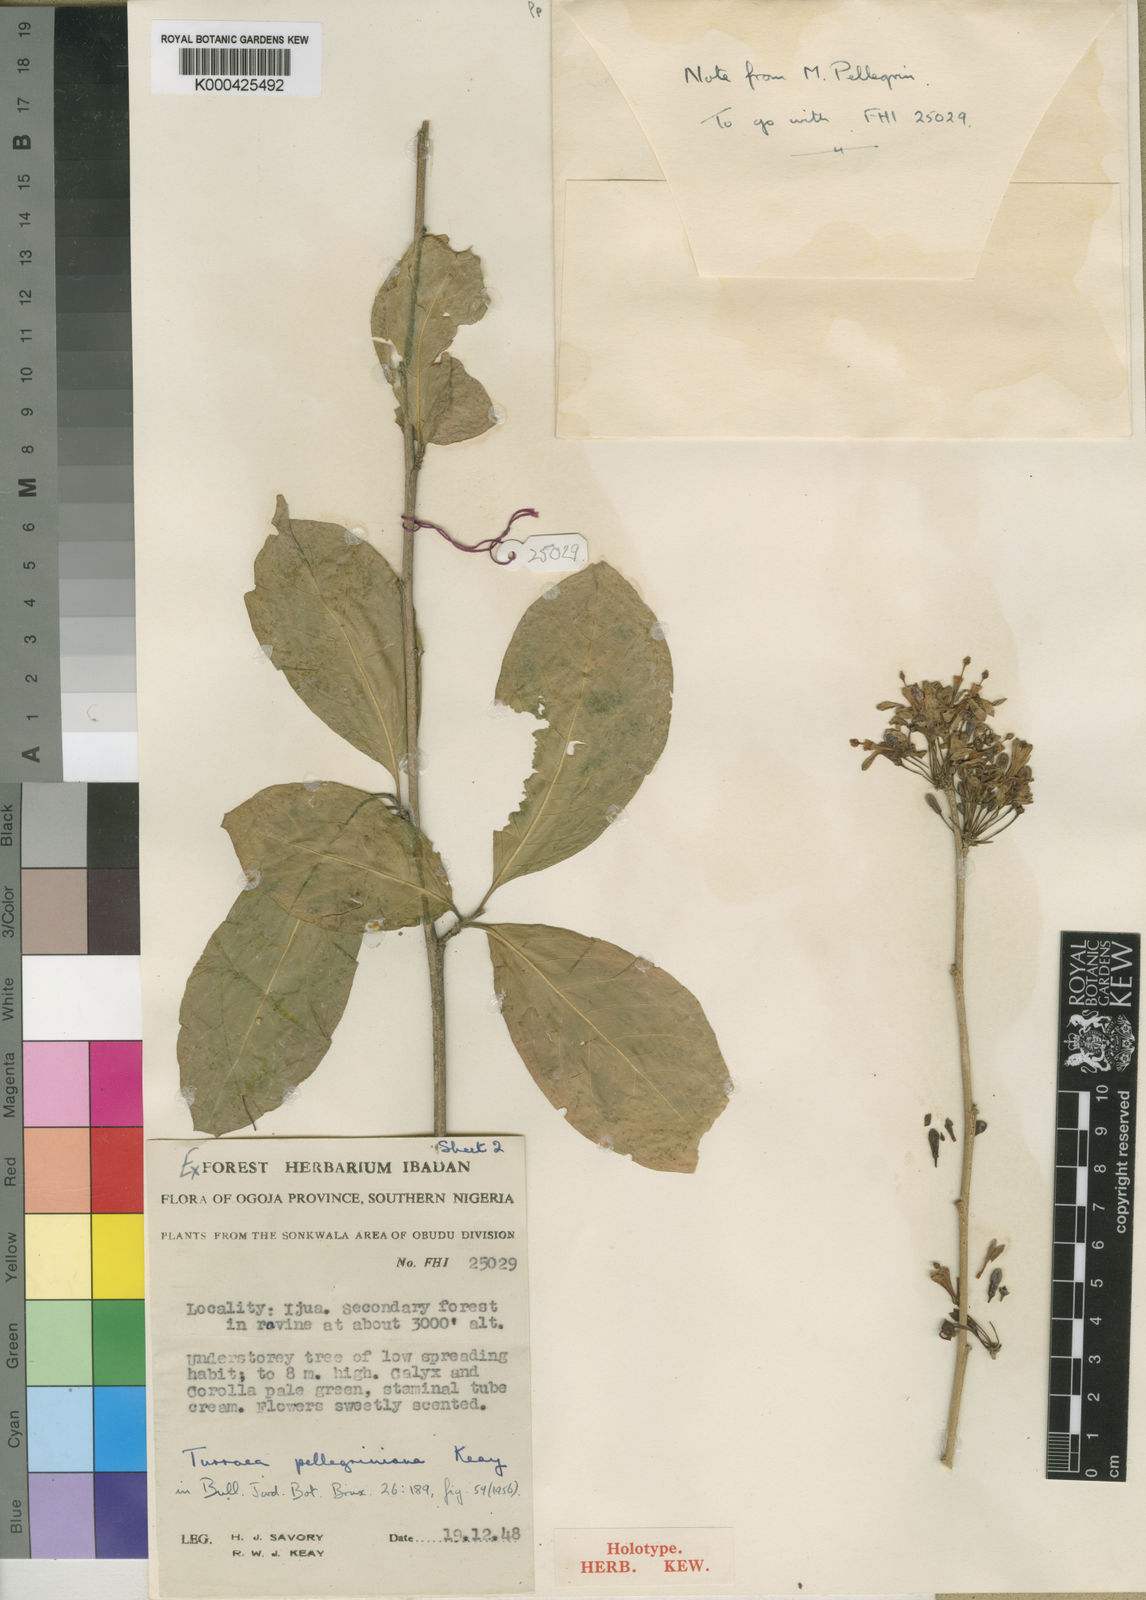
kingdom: Plantae
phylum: Tracheophyta
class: Magnoliopsida
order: Sapindales
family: Meliaceae
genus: Turraea
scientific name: Turraea pellegriniana
